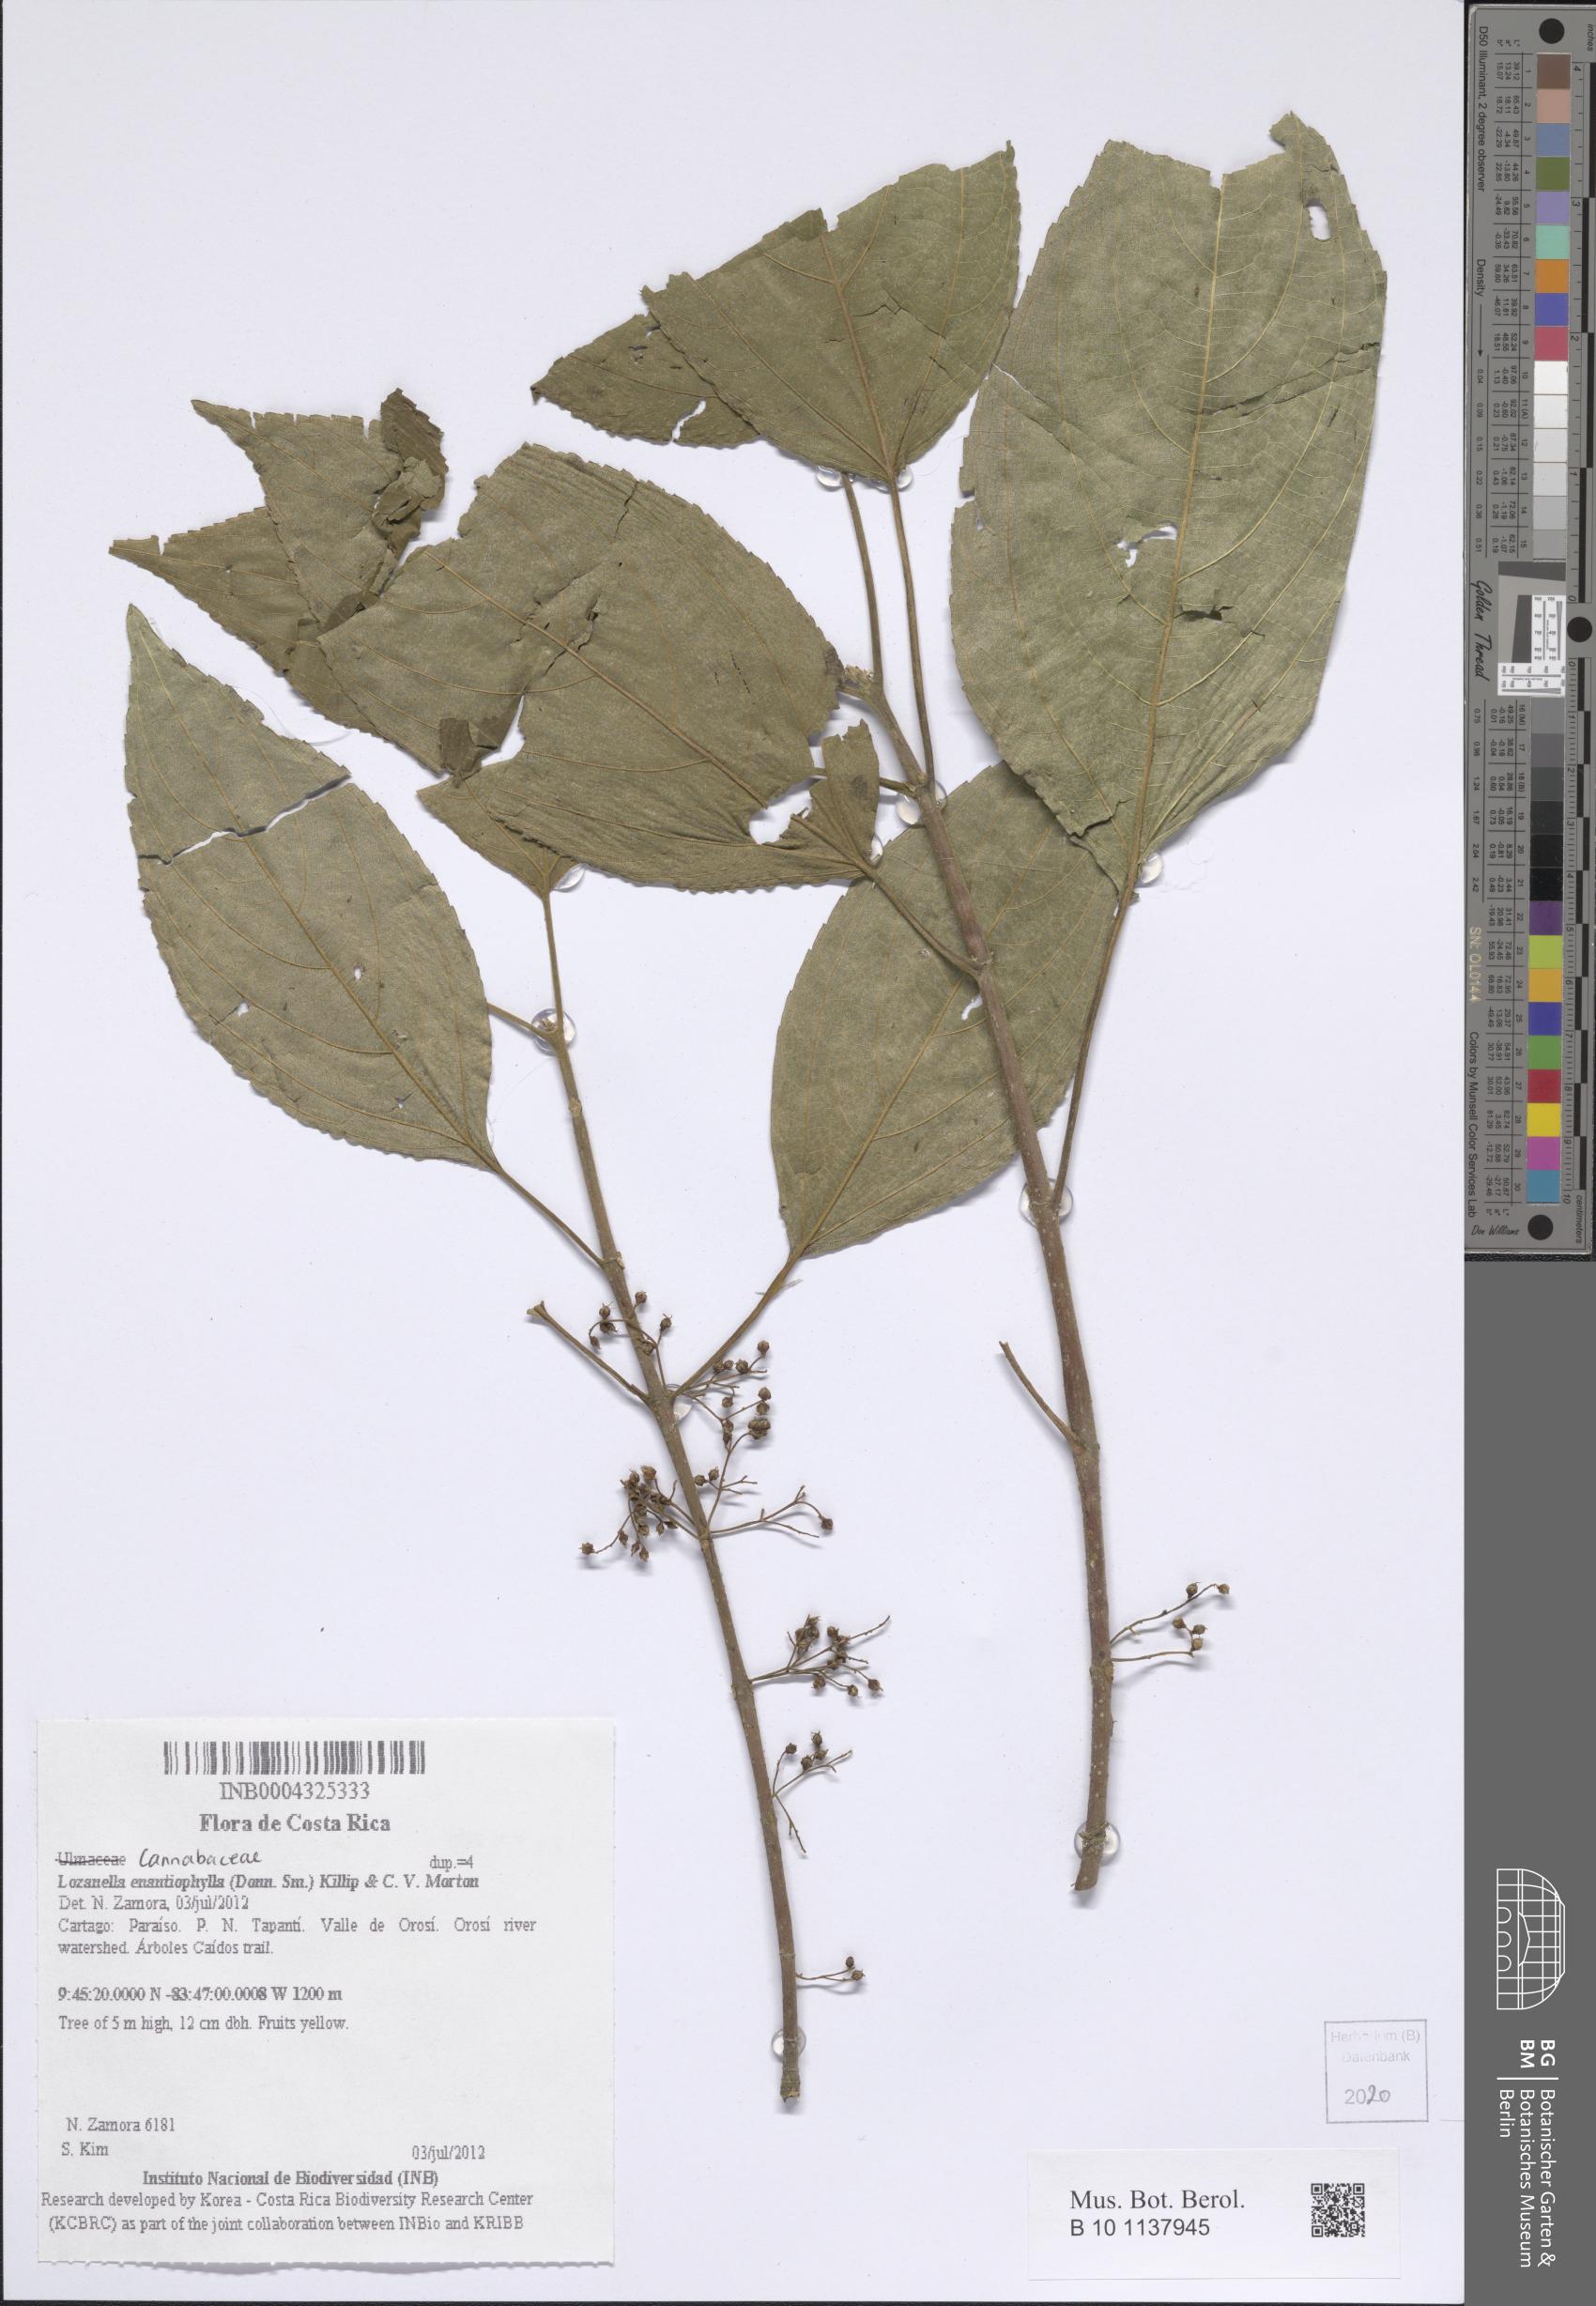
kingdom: Plantae
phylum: Tracheophyta
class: Magnoliopsida
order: Rosales
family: Cannabaceae
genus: Lozanella
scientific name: Lozanella enantiophylla
